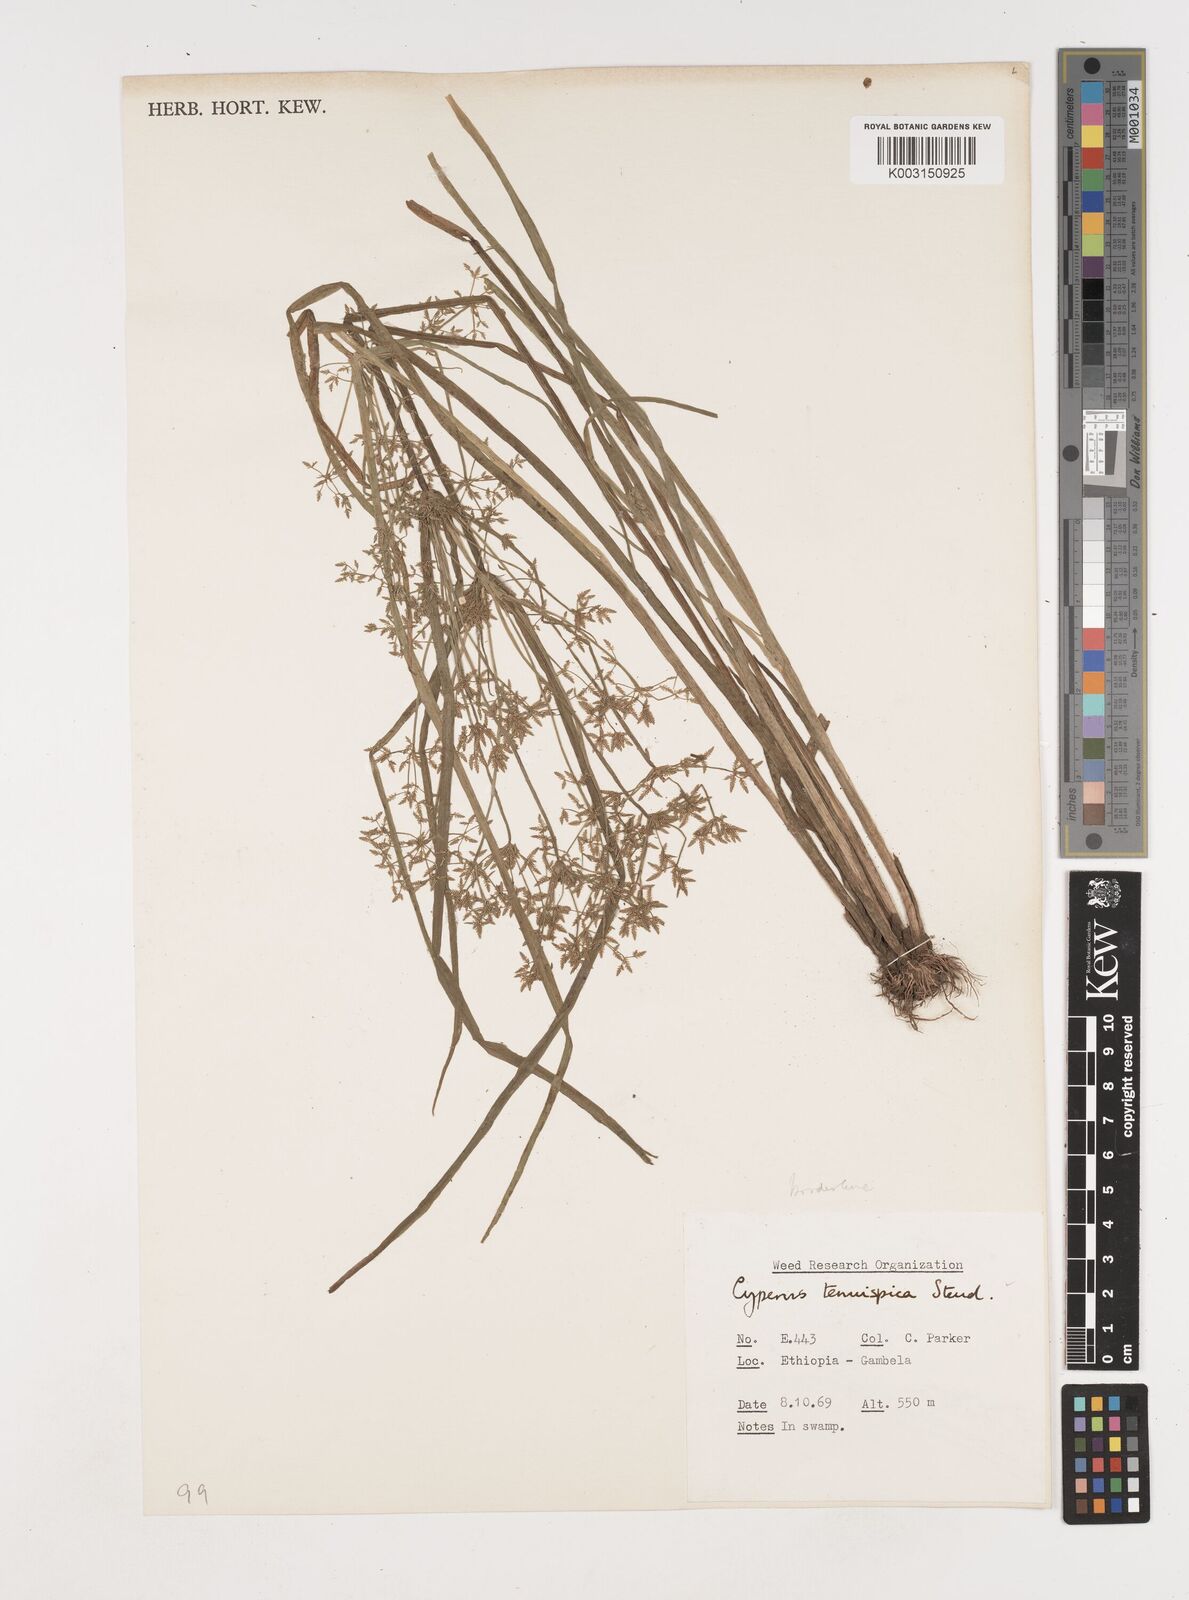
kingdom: Plantae
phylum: Tracheophyta
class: Liliopsida
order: Poales
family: Cyperaceae
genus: Cyperus
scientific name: Cyperus tenuispica
